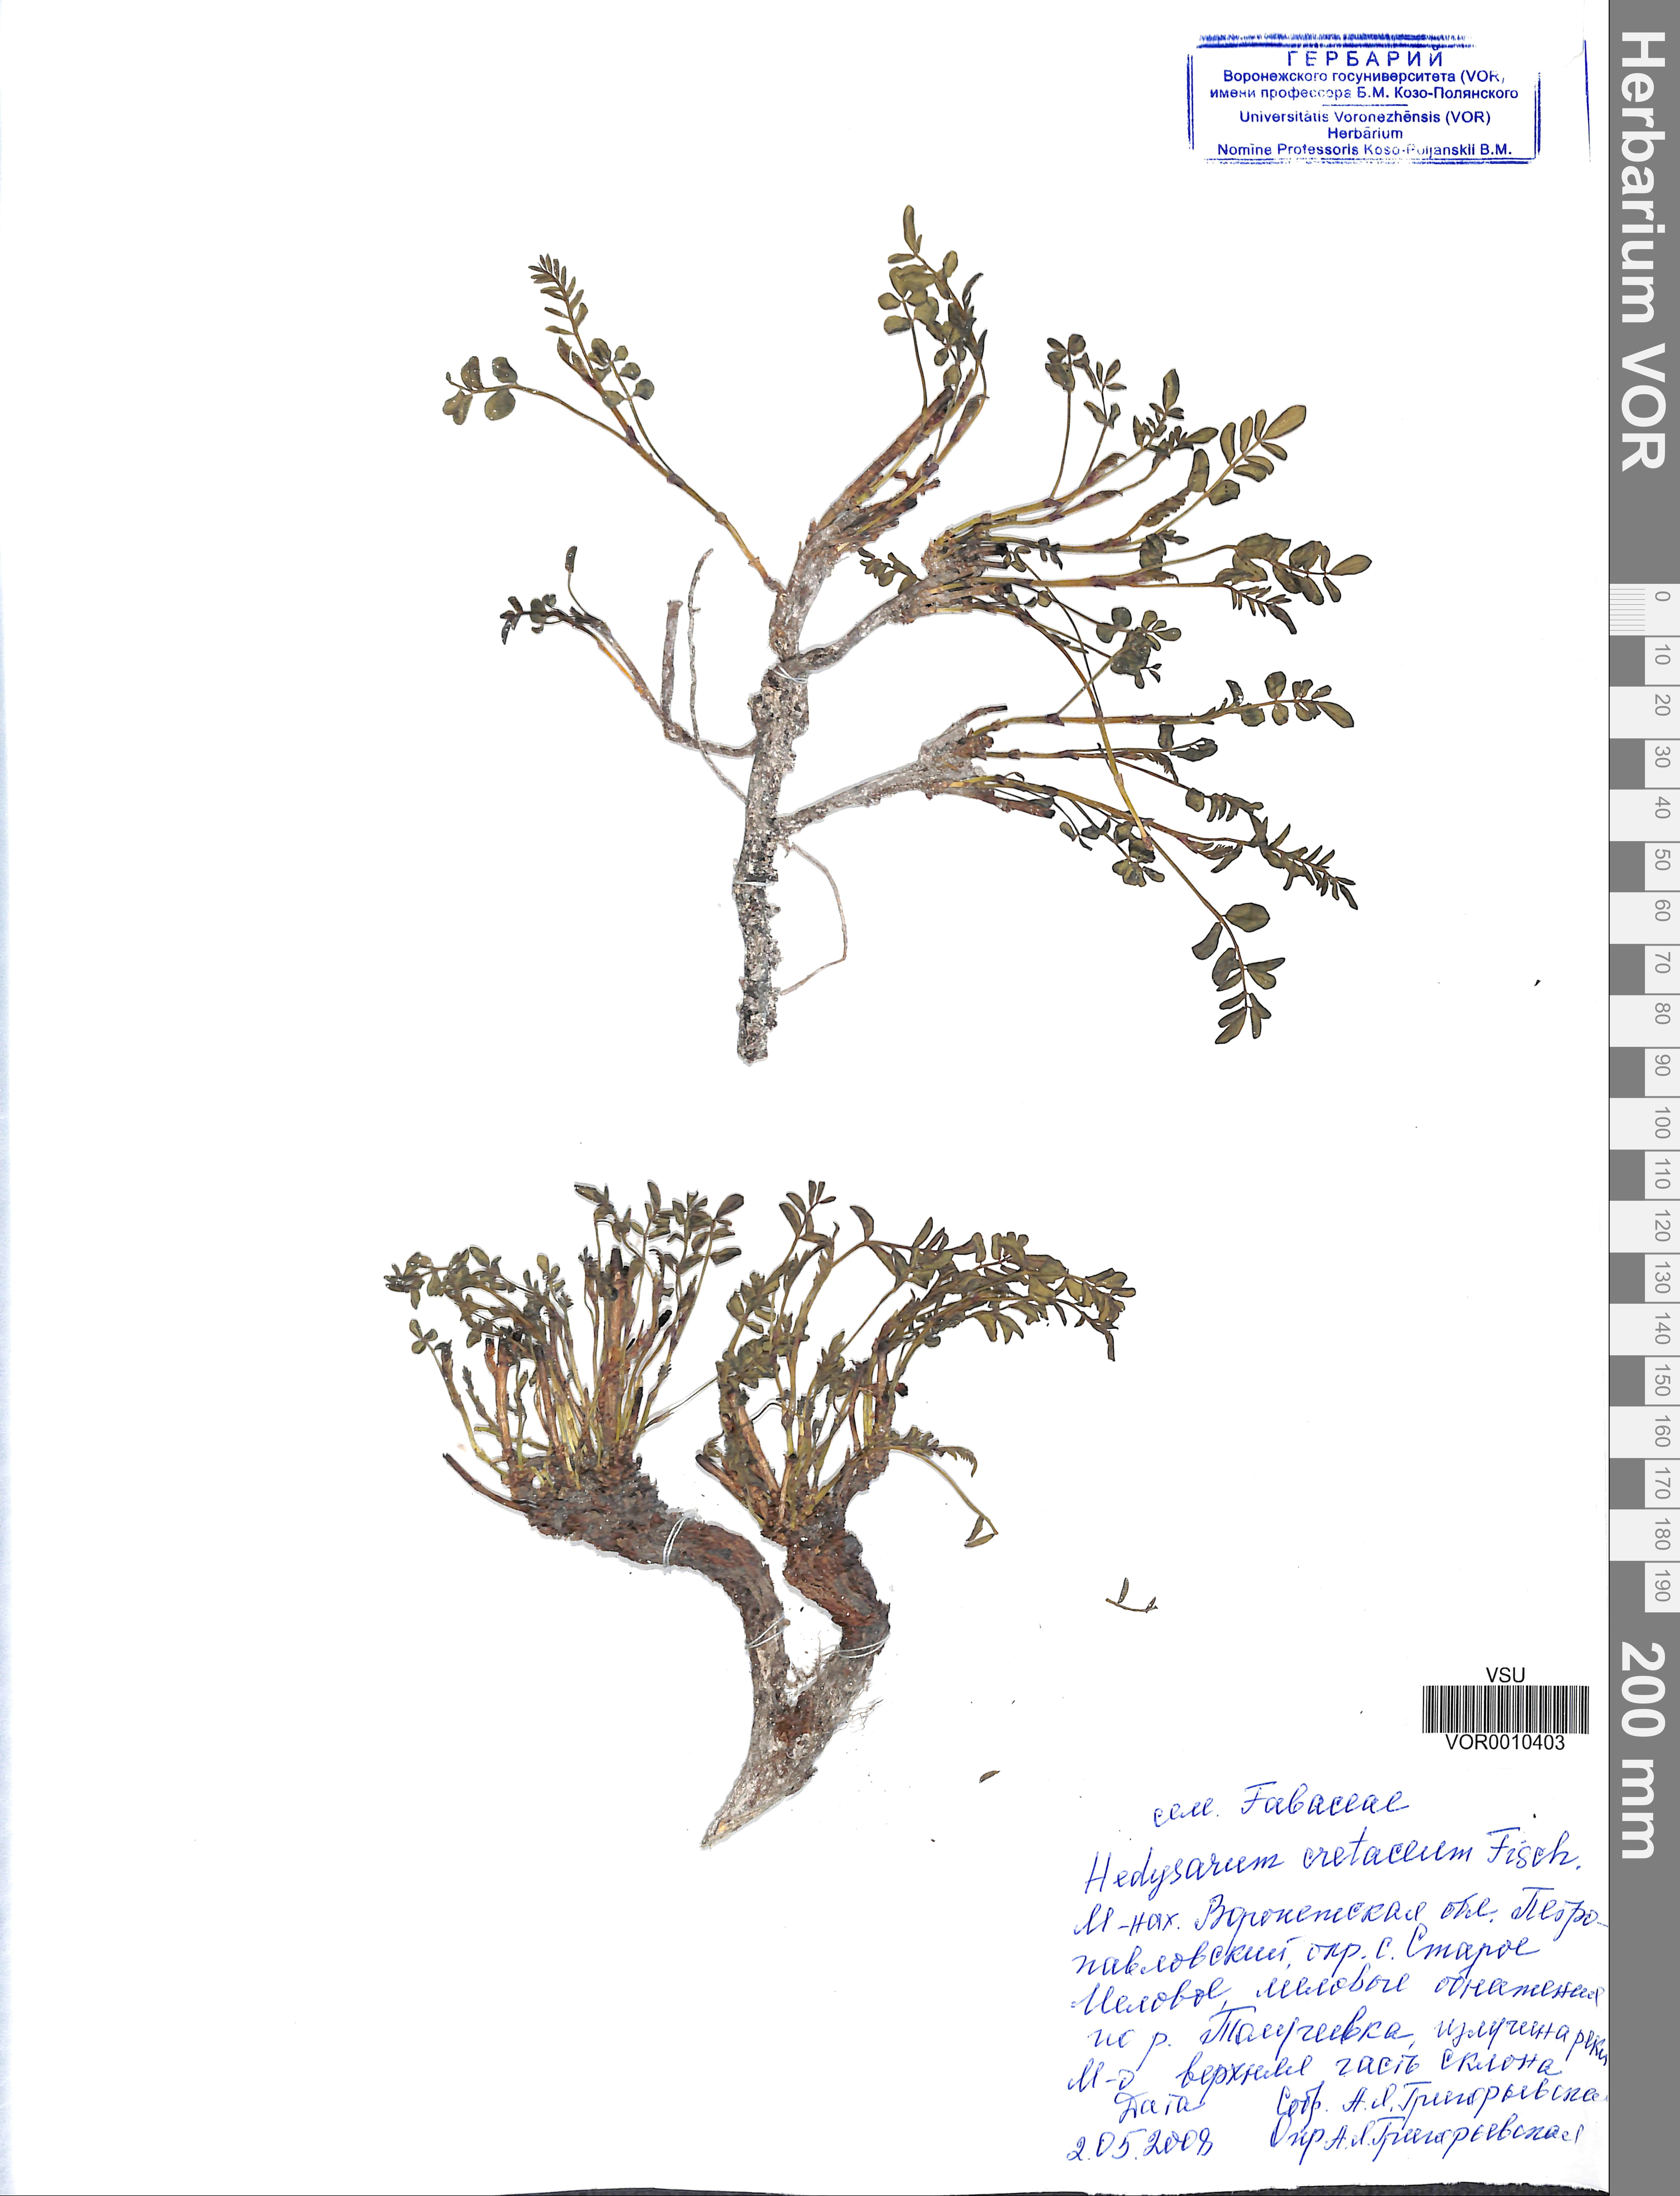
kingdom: Plantae
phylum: Tracheophyta
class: Magnoliopsida
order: Fabales
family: Fabaceae
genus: Hedysarum
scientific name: Hedysarum cretaceum
